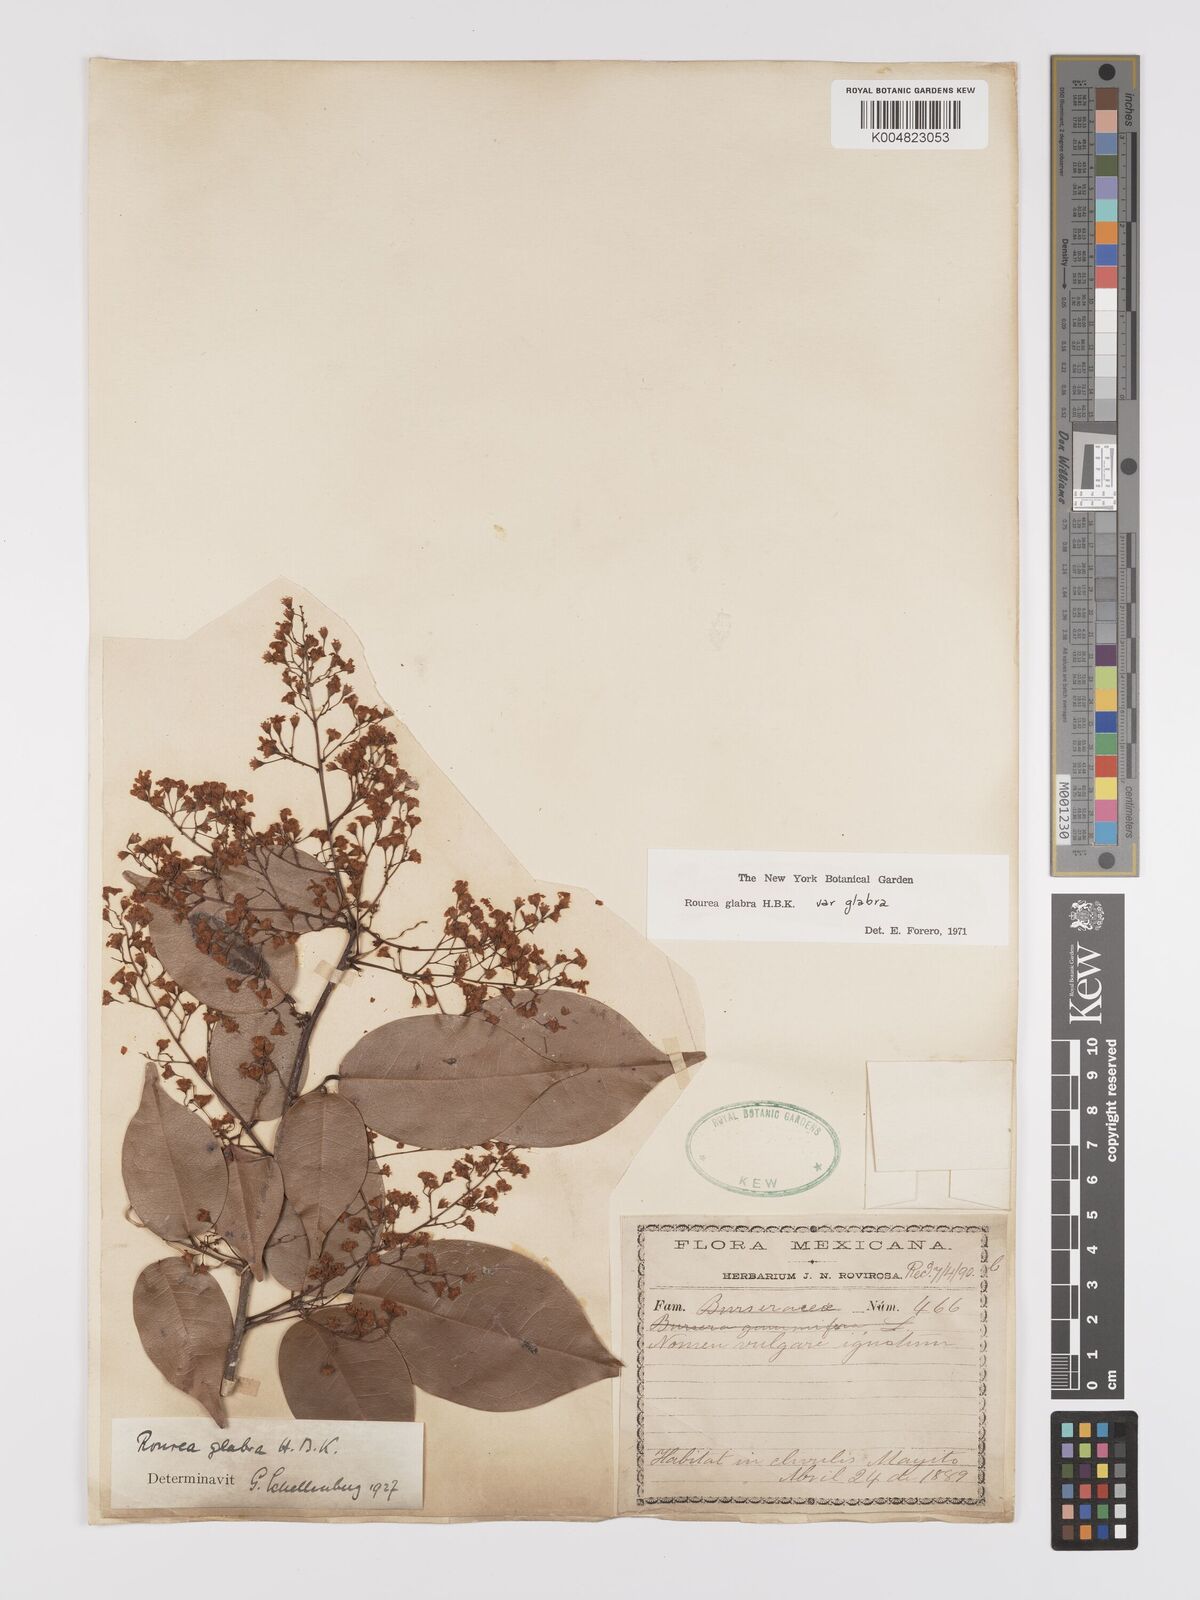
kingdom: Plantae
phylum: Tracheophyta
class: Magnoliopsida
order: Oxalidales
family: Connaraceae
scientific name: Connaraceae
